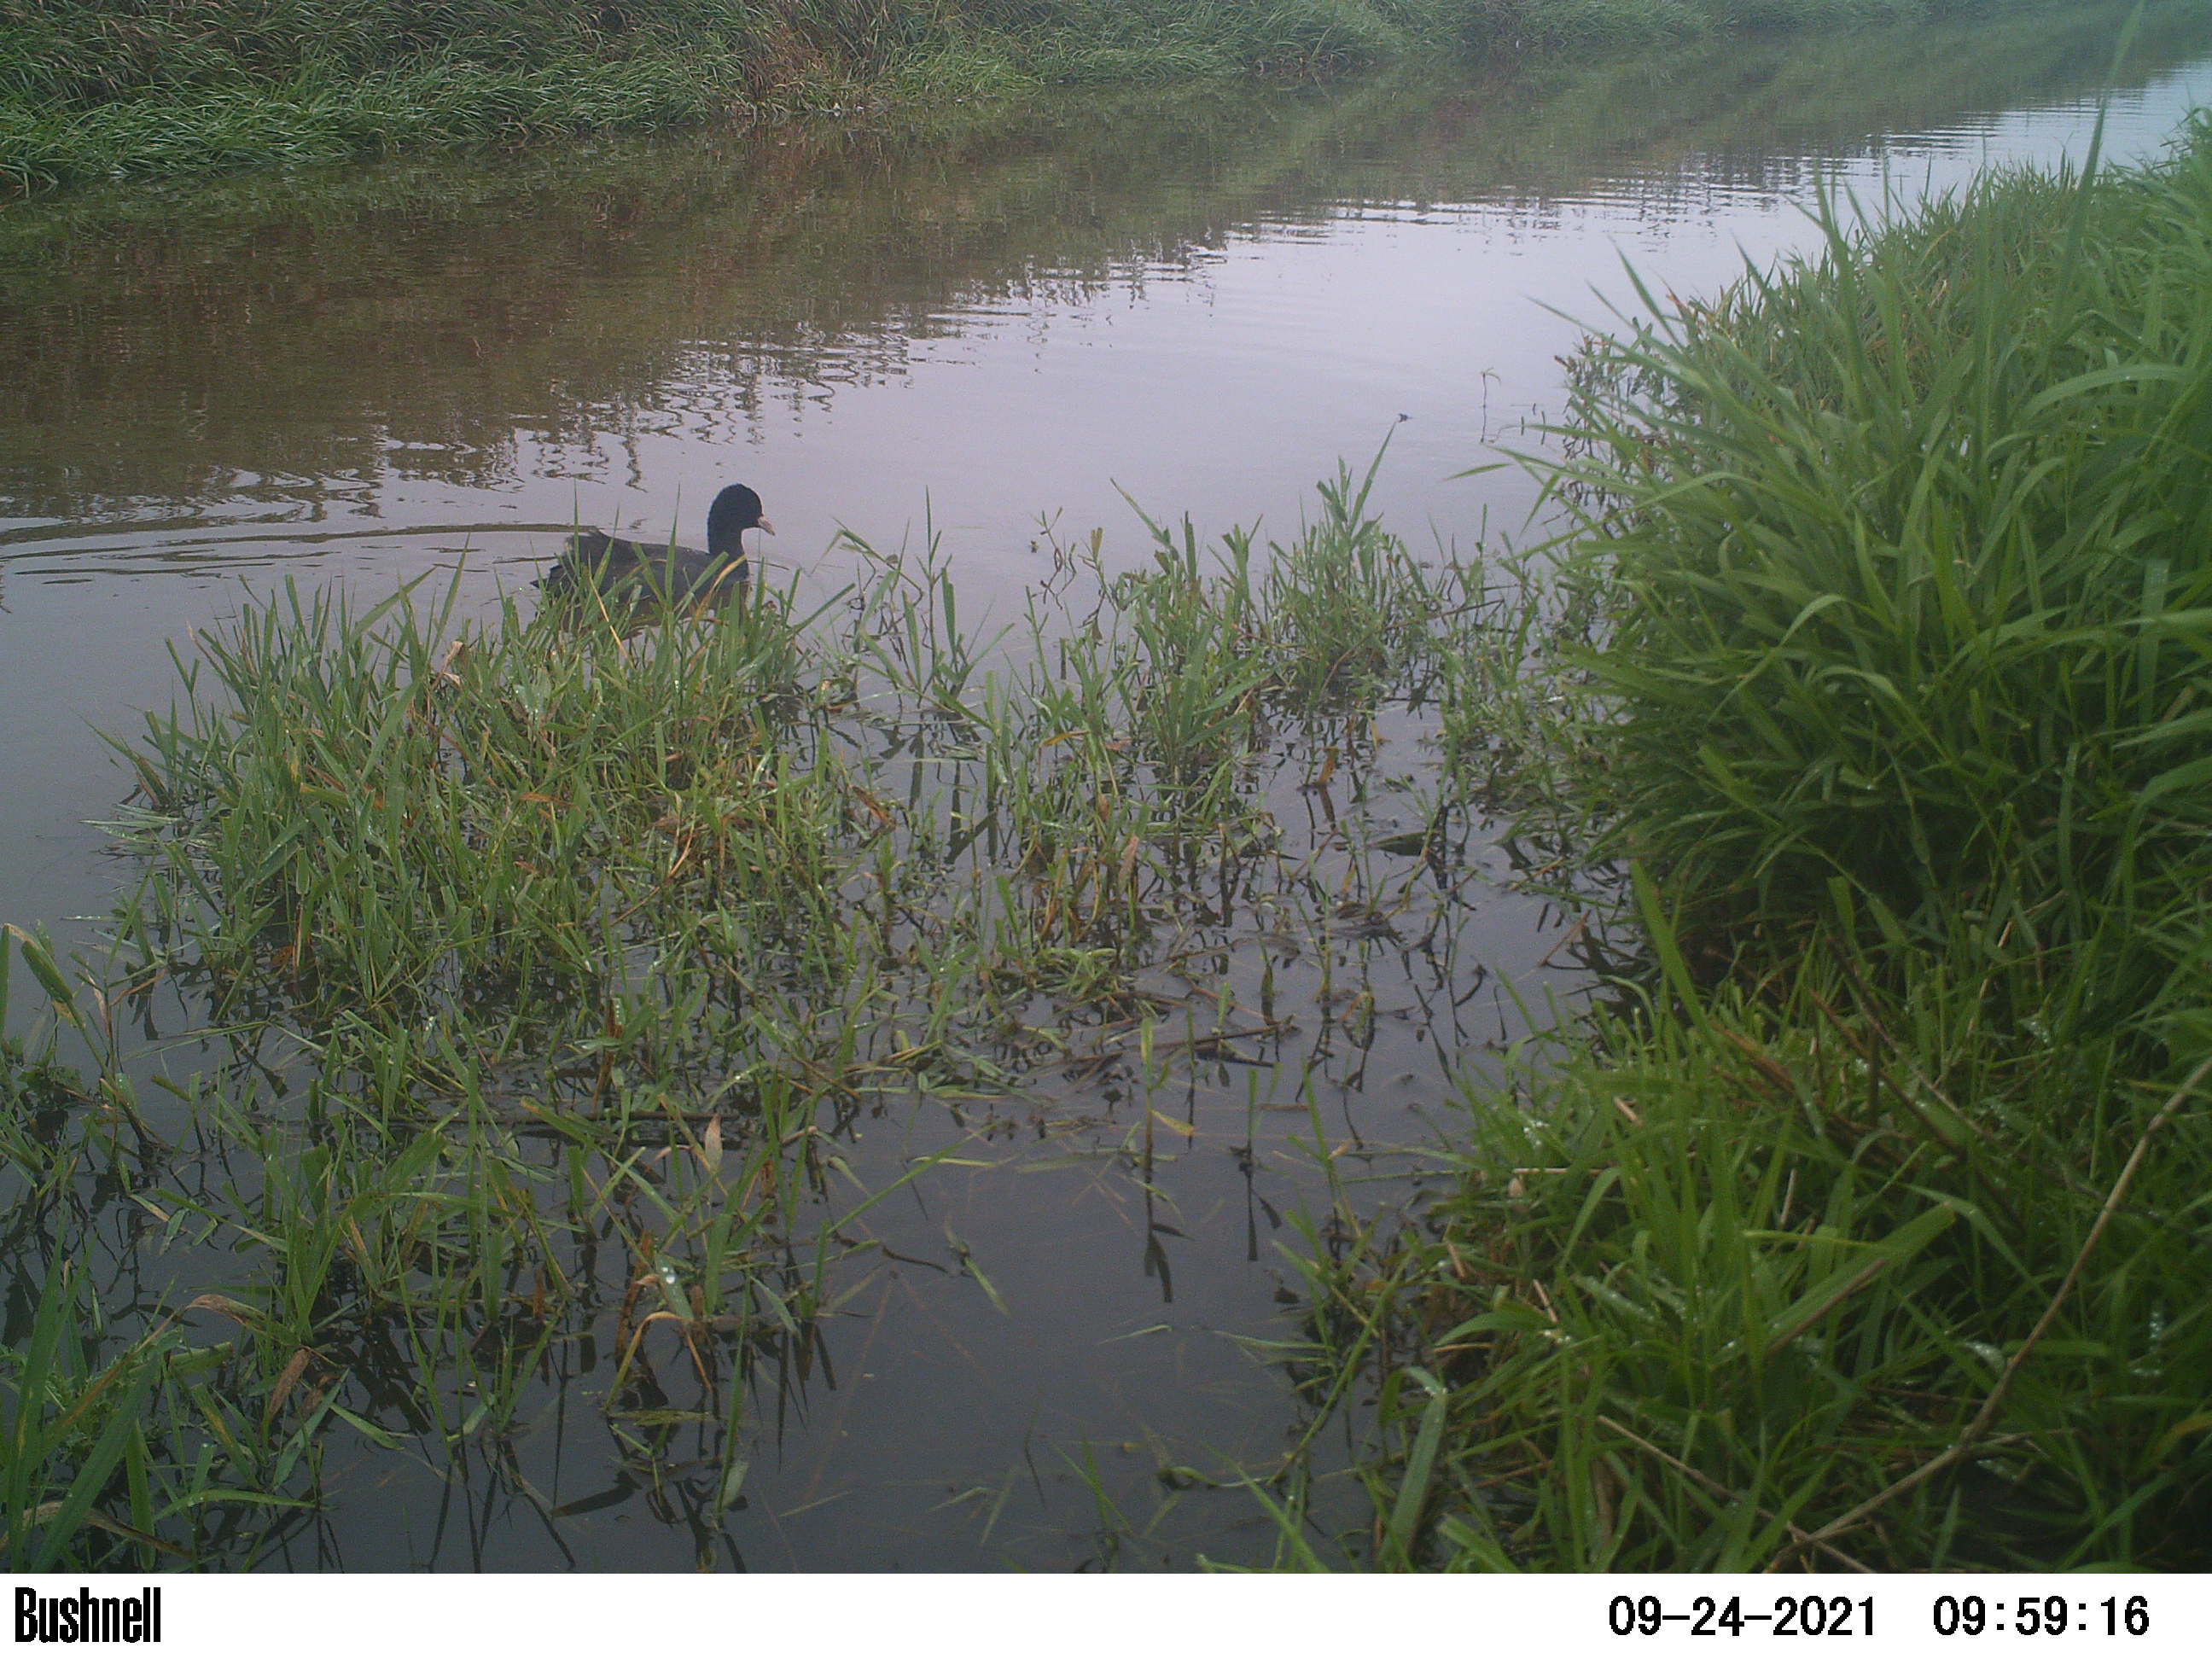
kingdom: Animalia
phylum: Chordata
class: Aves
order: Gruiformes
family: Rallidae
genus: Fulica
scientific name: Fulica atra
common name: Eurasian coot
